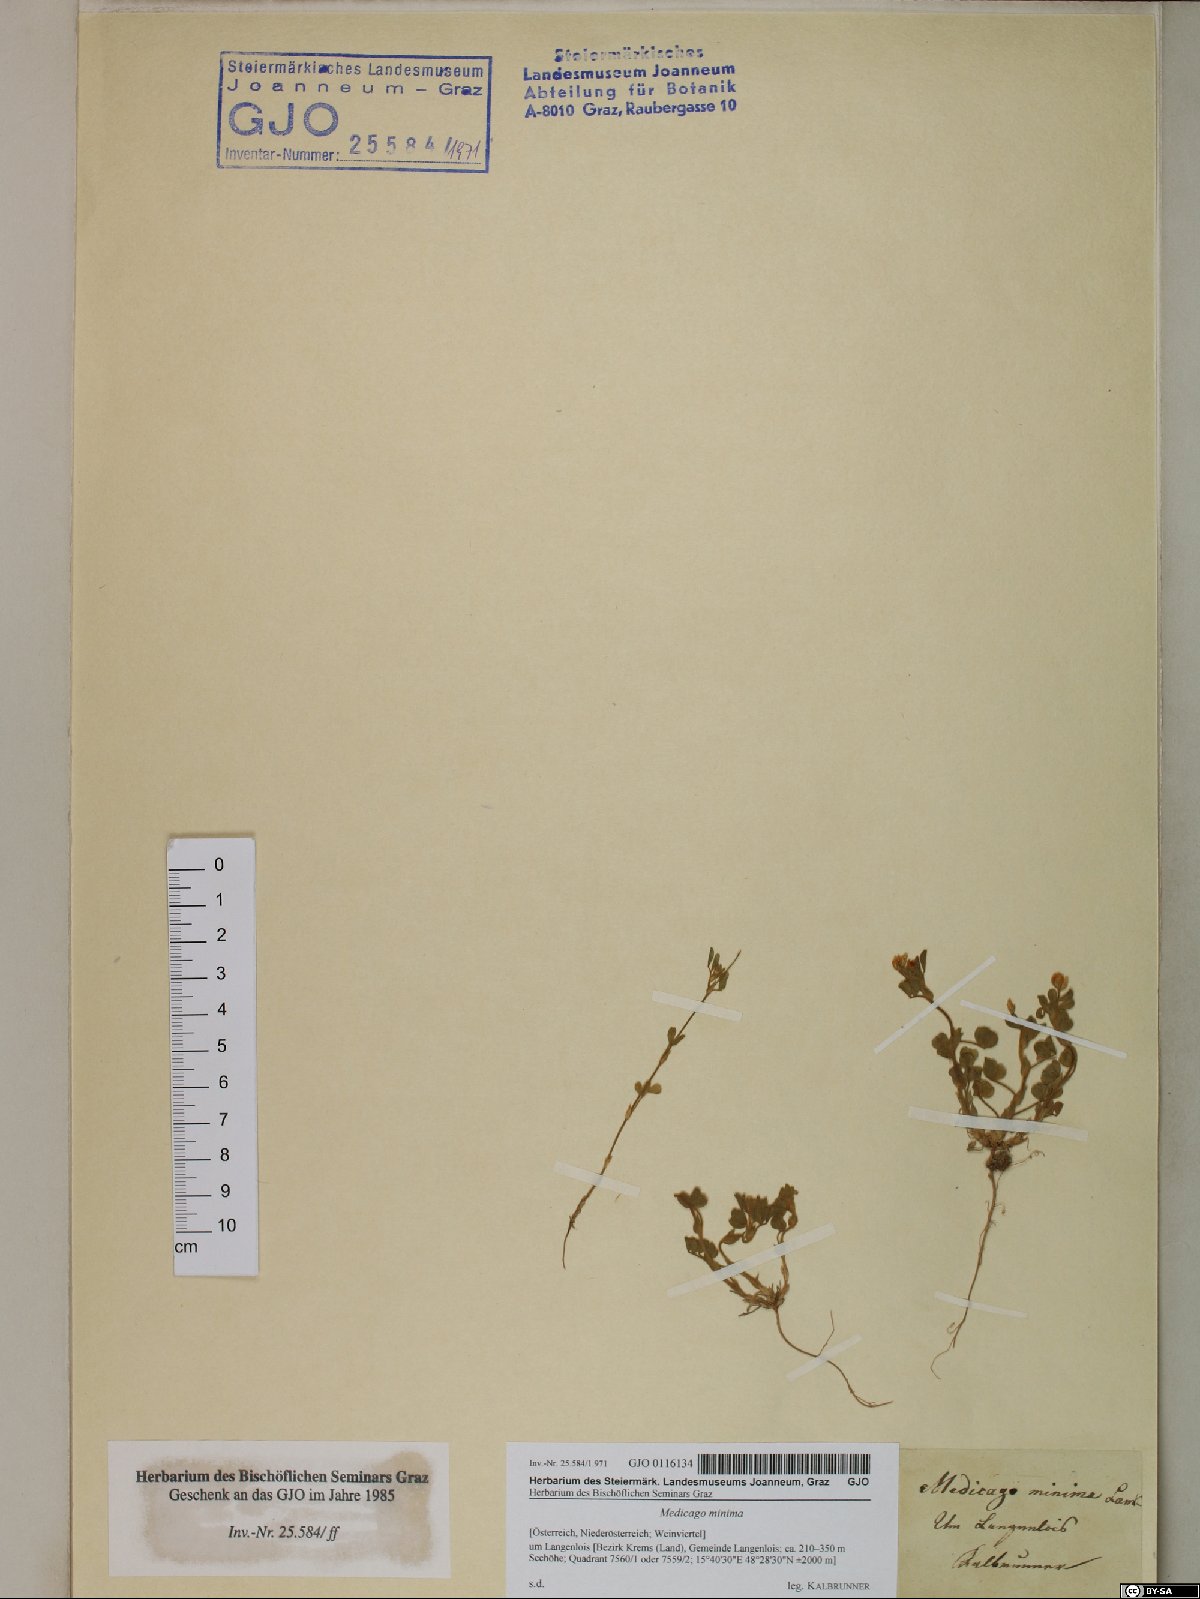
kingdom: Plantae
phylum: Tracheophyta
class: Magnoliopsida
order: Fabales
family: Fabaceae
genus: Medicago
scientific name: Medicago minima
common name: Little bur-clover
